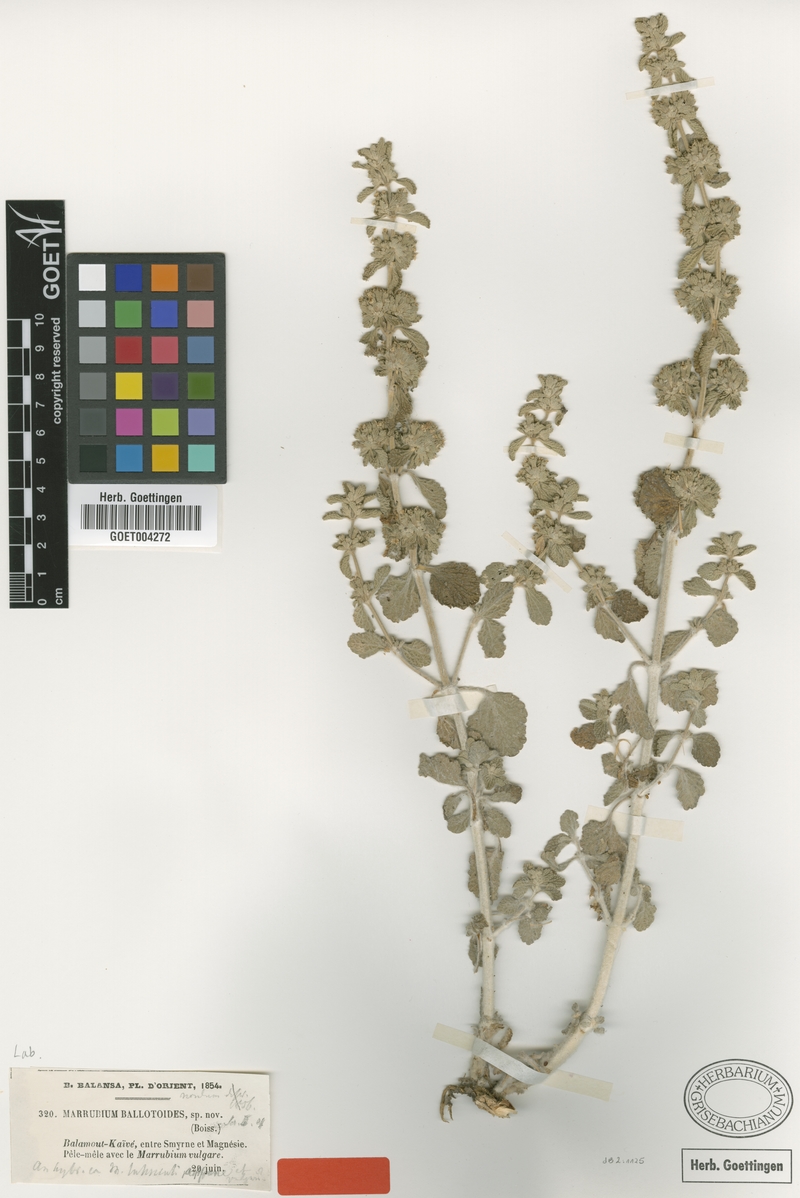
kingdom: Plantae
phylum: Tracheophyta
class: Magnoliopsida
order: Lamiales
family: Lamiaceae
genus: Marrubium
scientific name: Marrubium vulgare
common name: Horehound
